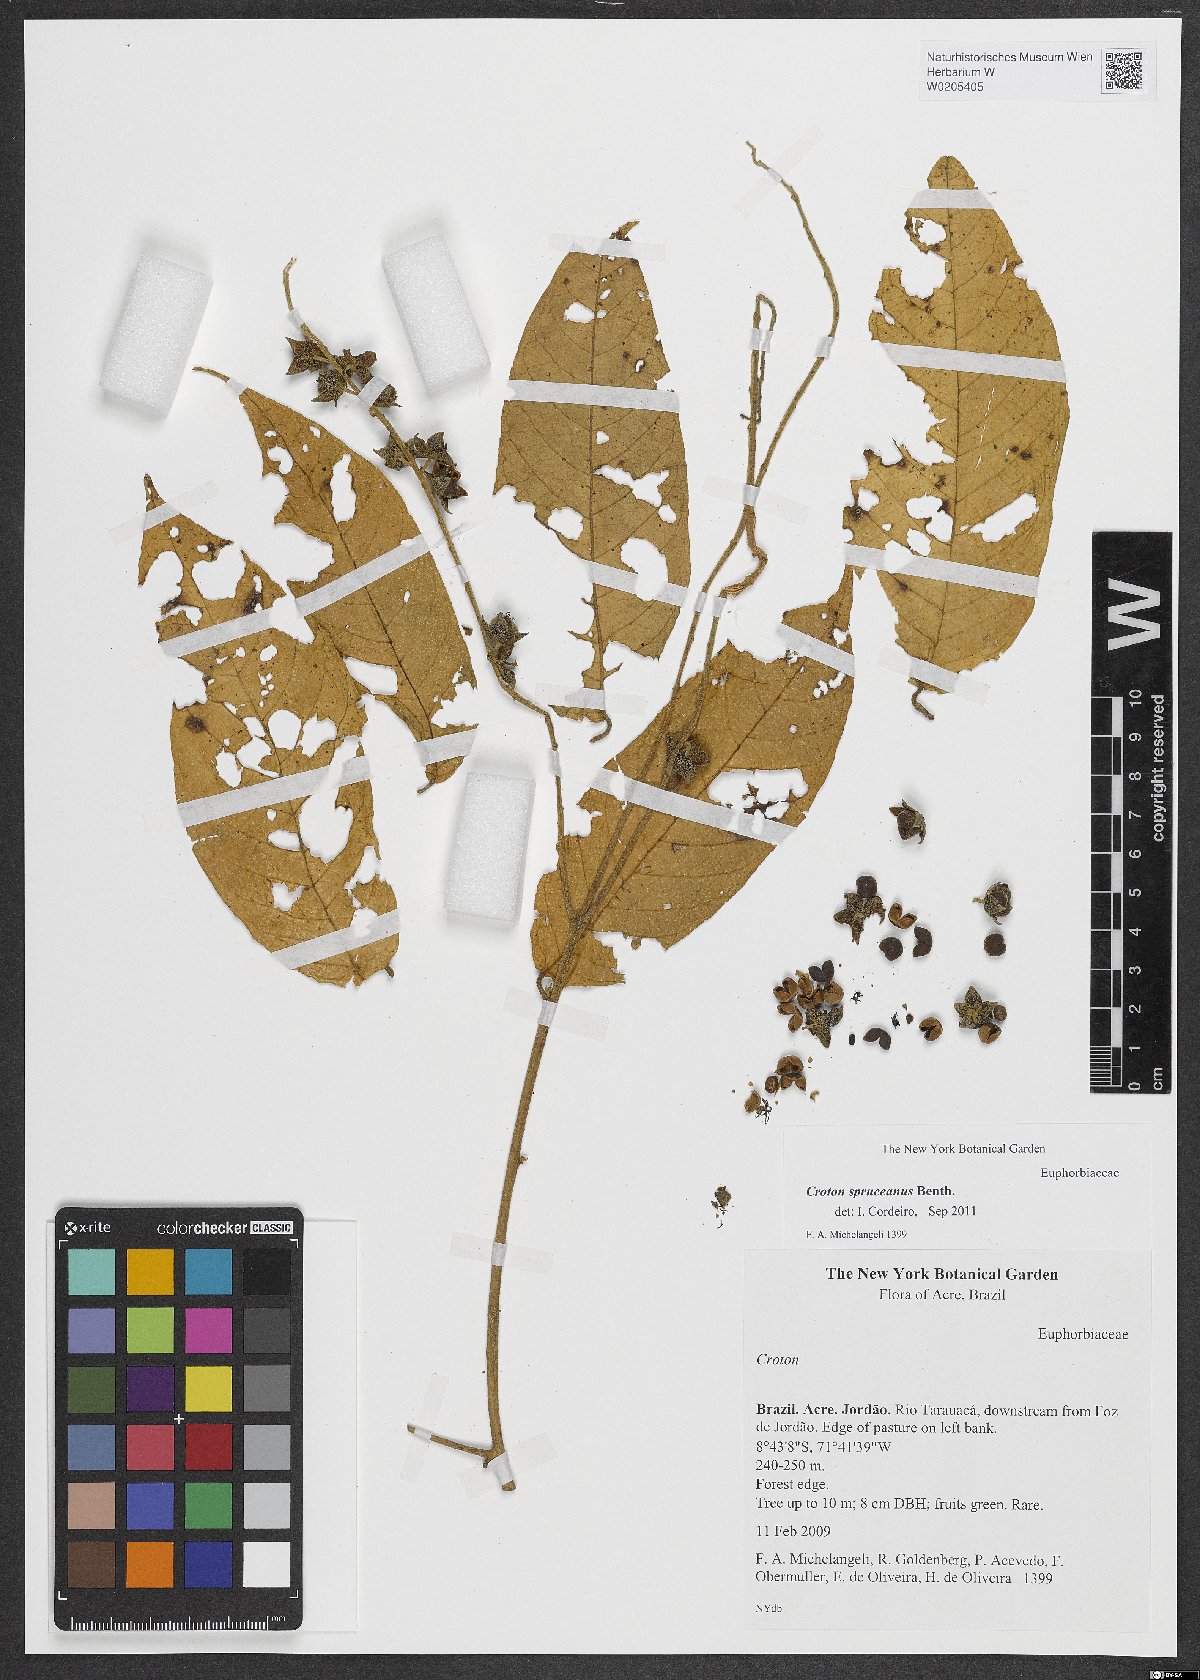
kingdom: Plantae
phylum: Tracheophyta
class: Magnoliopsida
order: Malpighiales
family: Euphorbiaceae
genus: Croton
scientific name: Croton spruceanus
